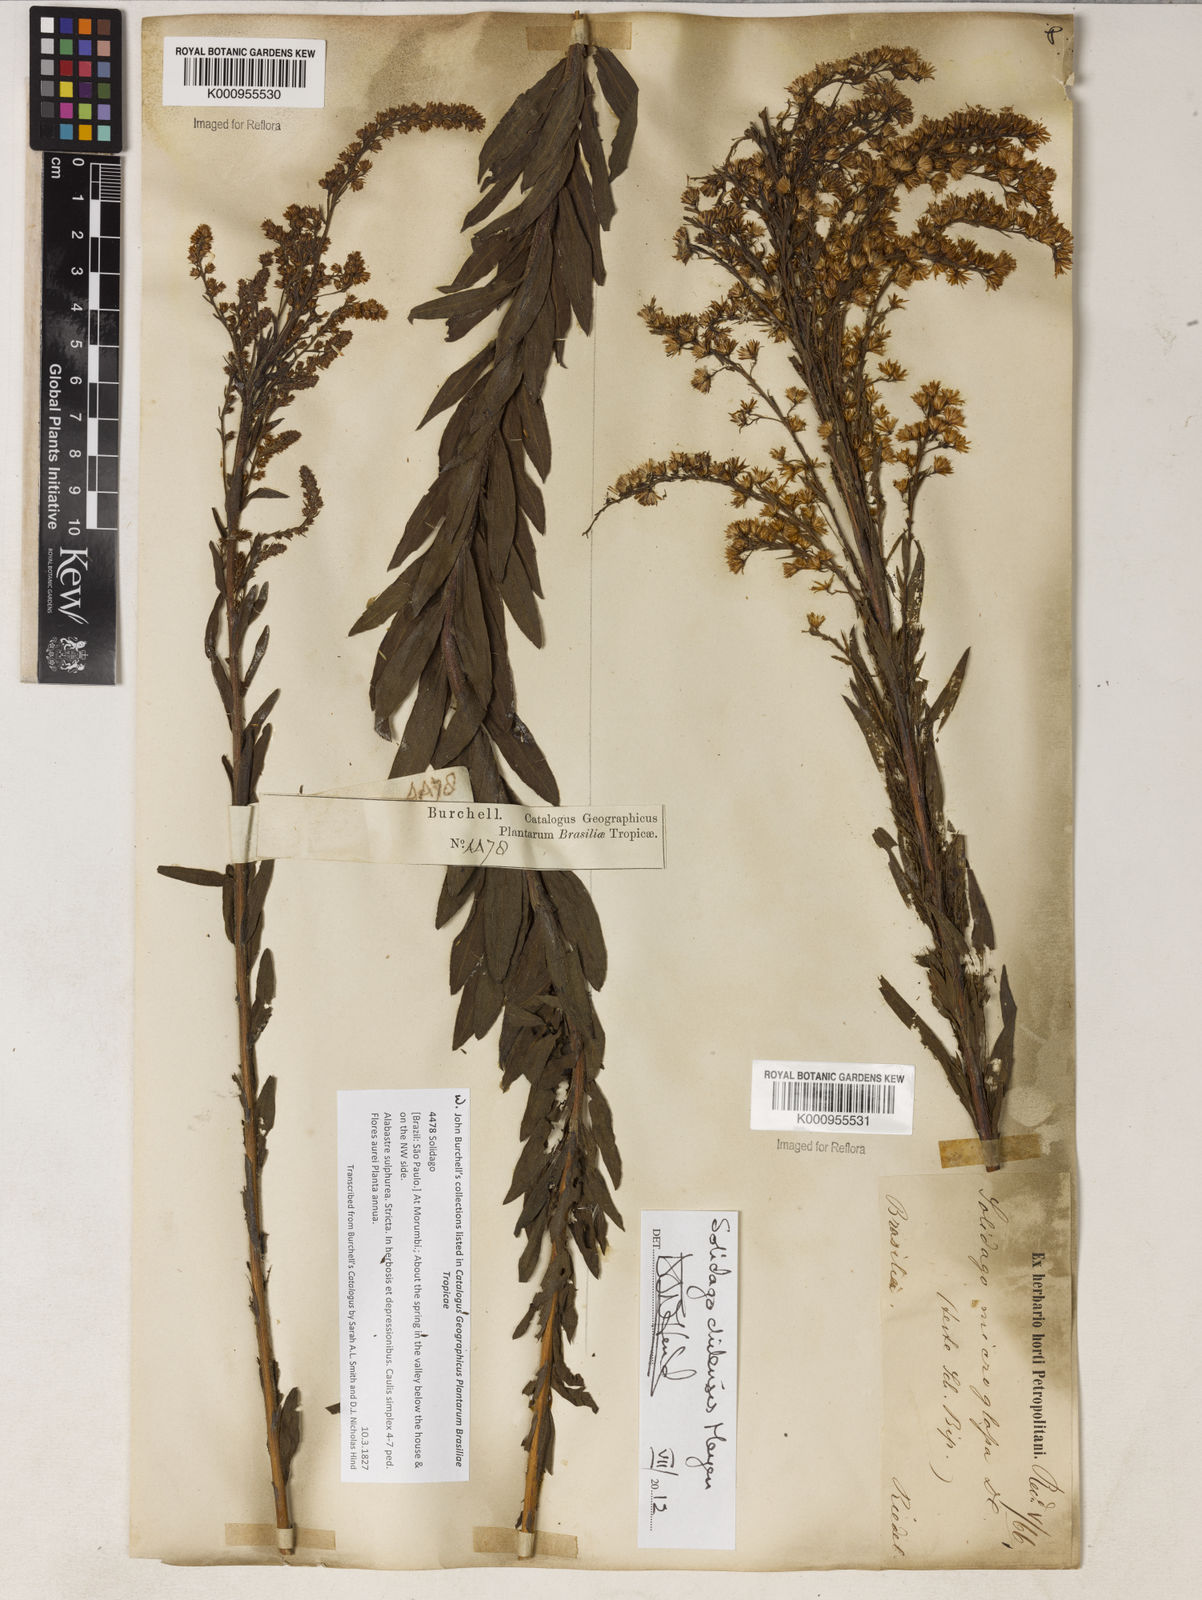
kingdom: Plantae
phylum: Tracheophyta
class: Magnoliopsida
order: Asterales
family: Asteraceae
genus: Solidago
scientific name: Solidago chilensis
